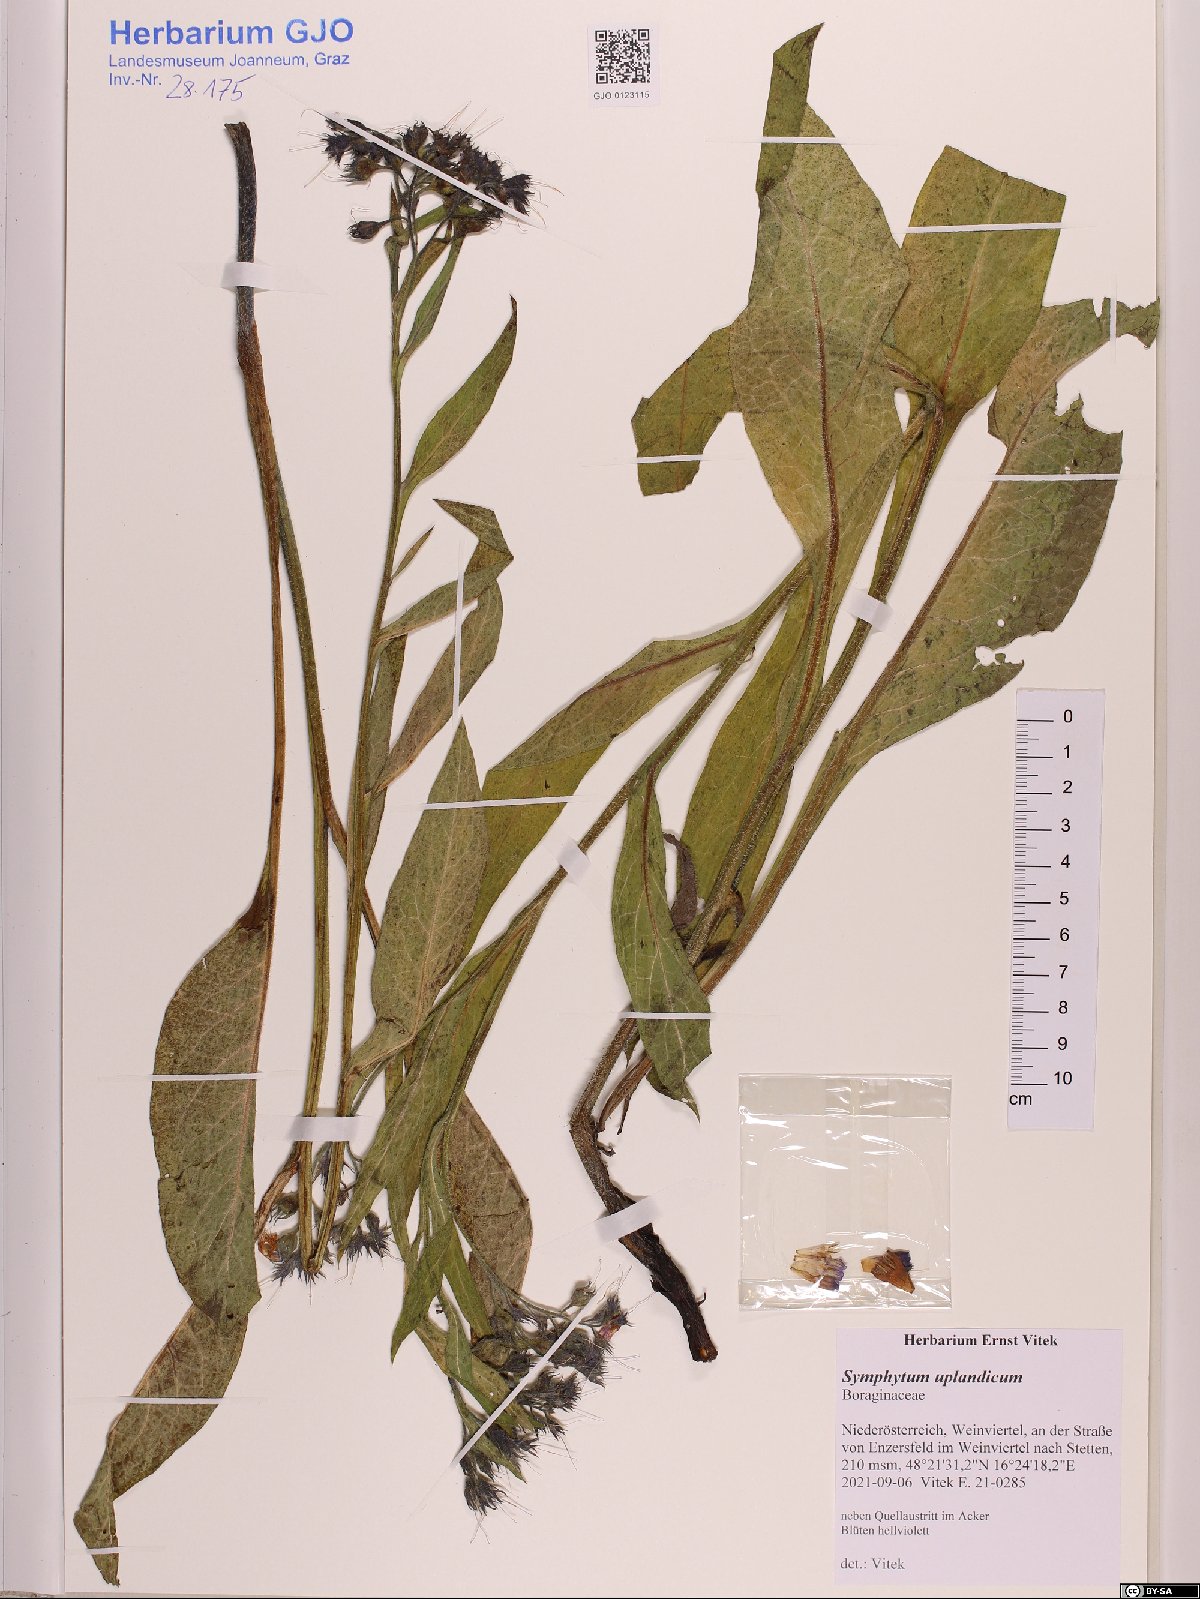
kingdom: Plantae
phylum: Tracheophyta
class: Magnoliopsida
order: Boraginales
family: Boraginaceae
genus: Symphytum
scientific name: Symphytum uplandicum
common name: Russian comfrey
